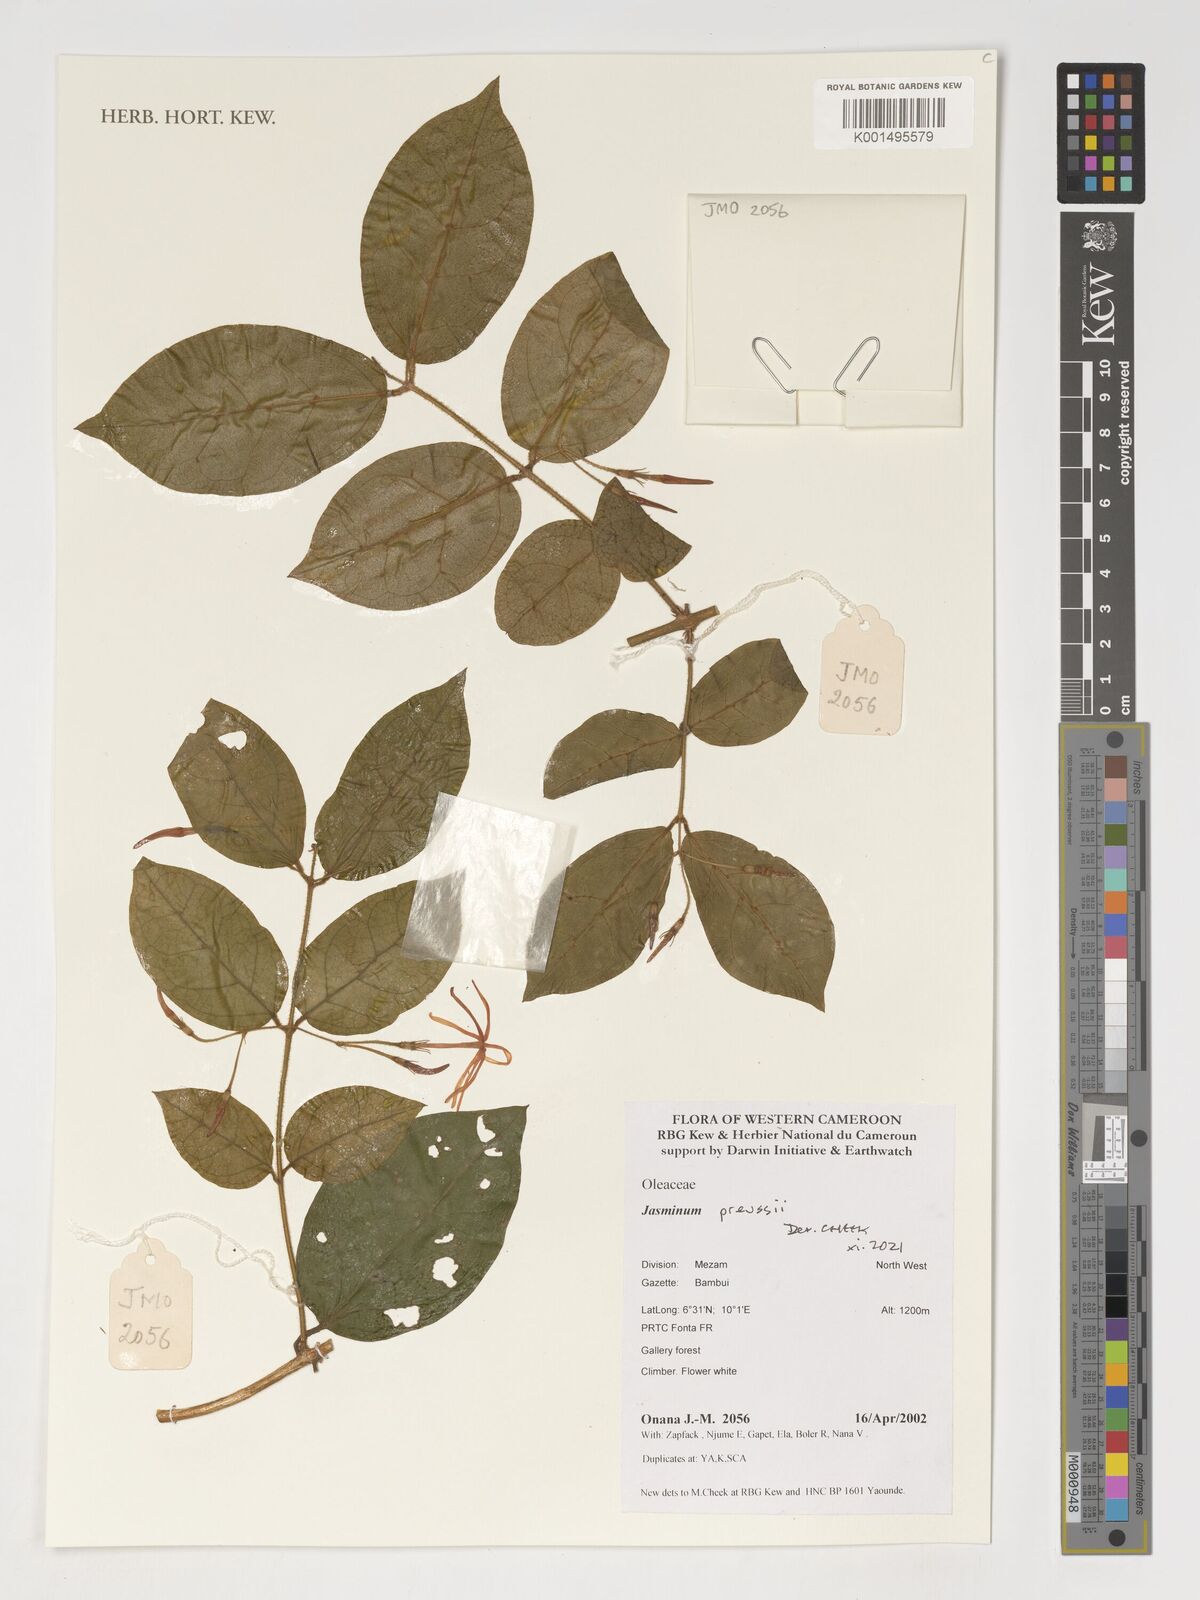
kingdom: Plantae
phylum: Tracheophyta
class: Magnoliopsida
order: Lamiales
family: Oleaceae
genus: Jasminum
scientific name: Jasminum preussii
